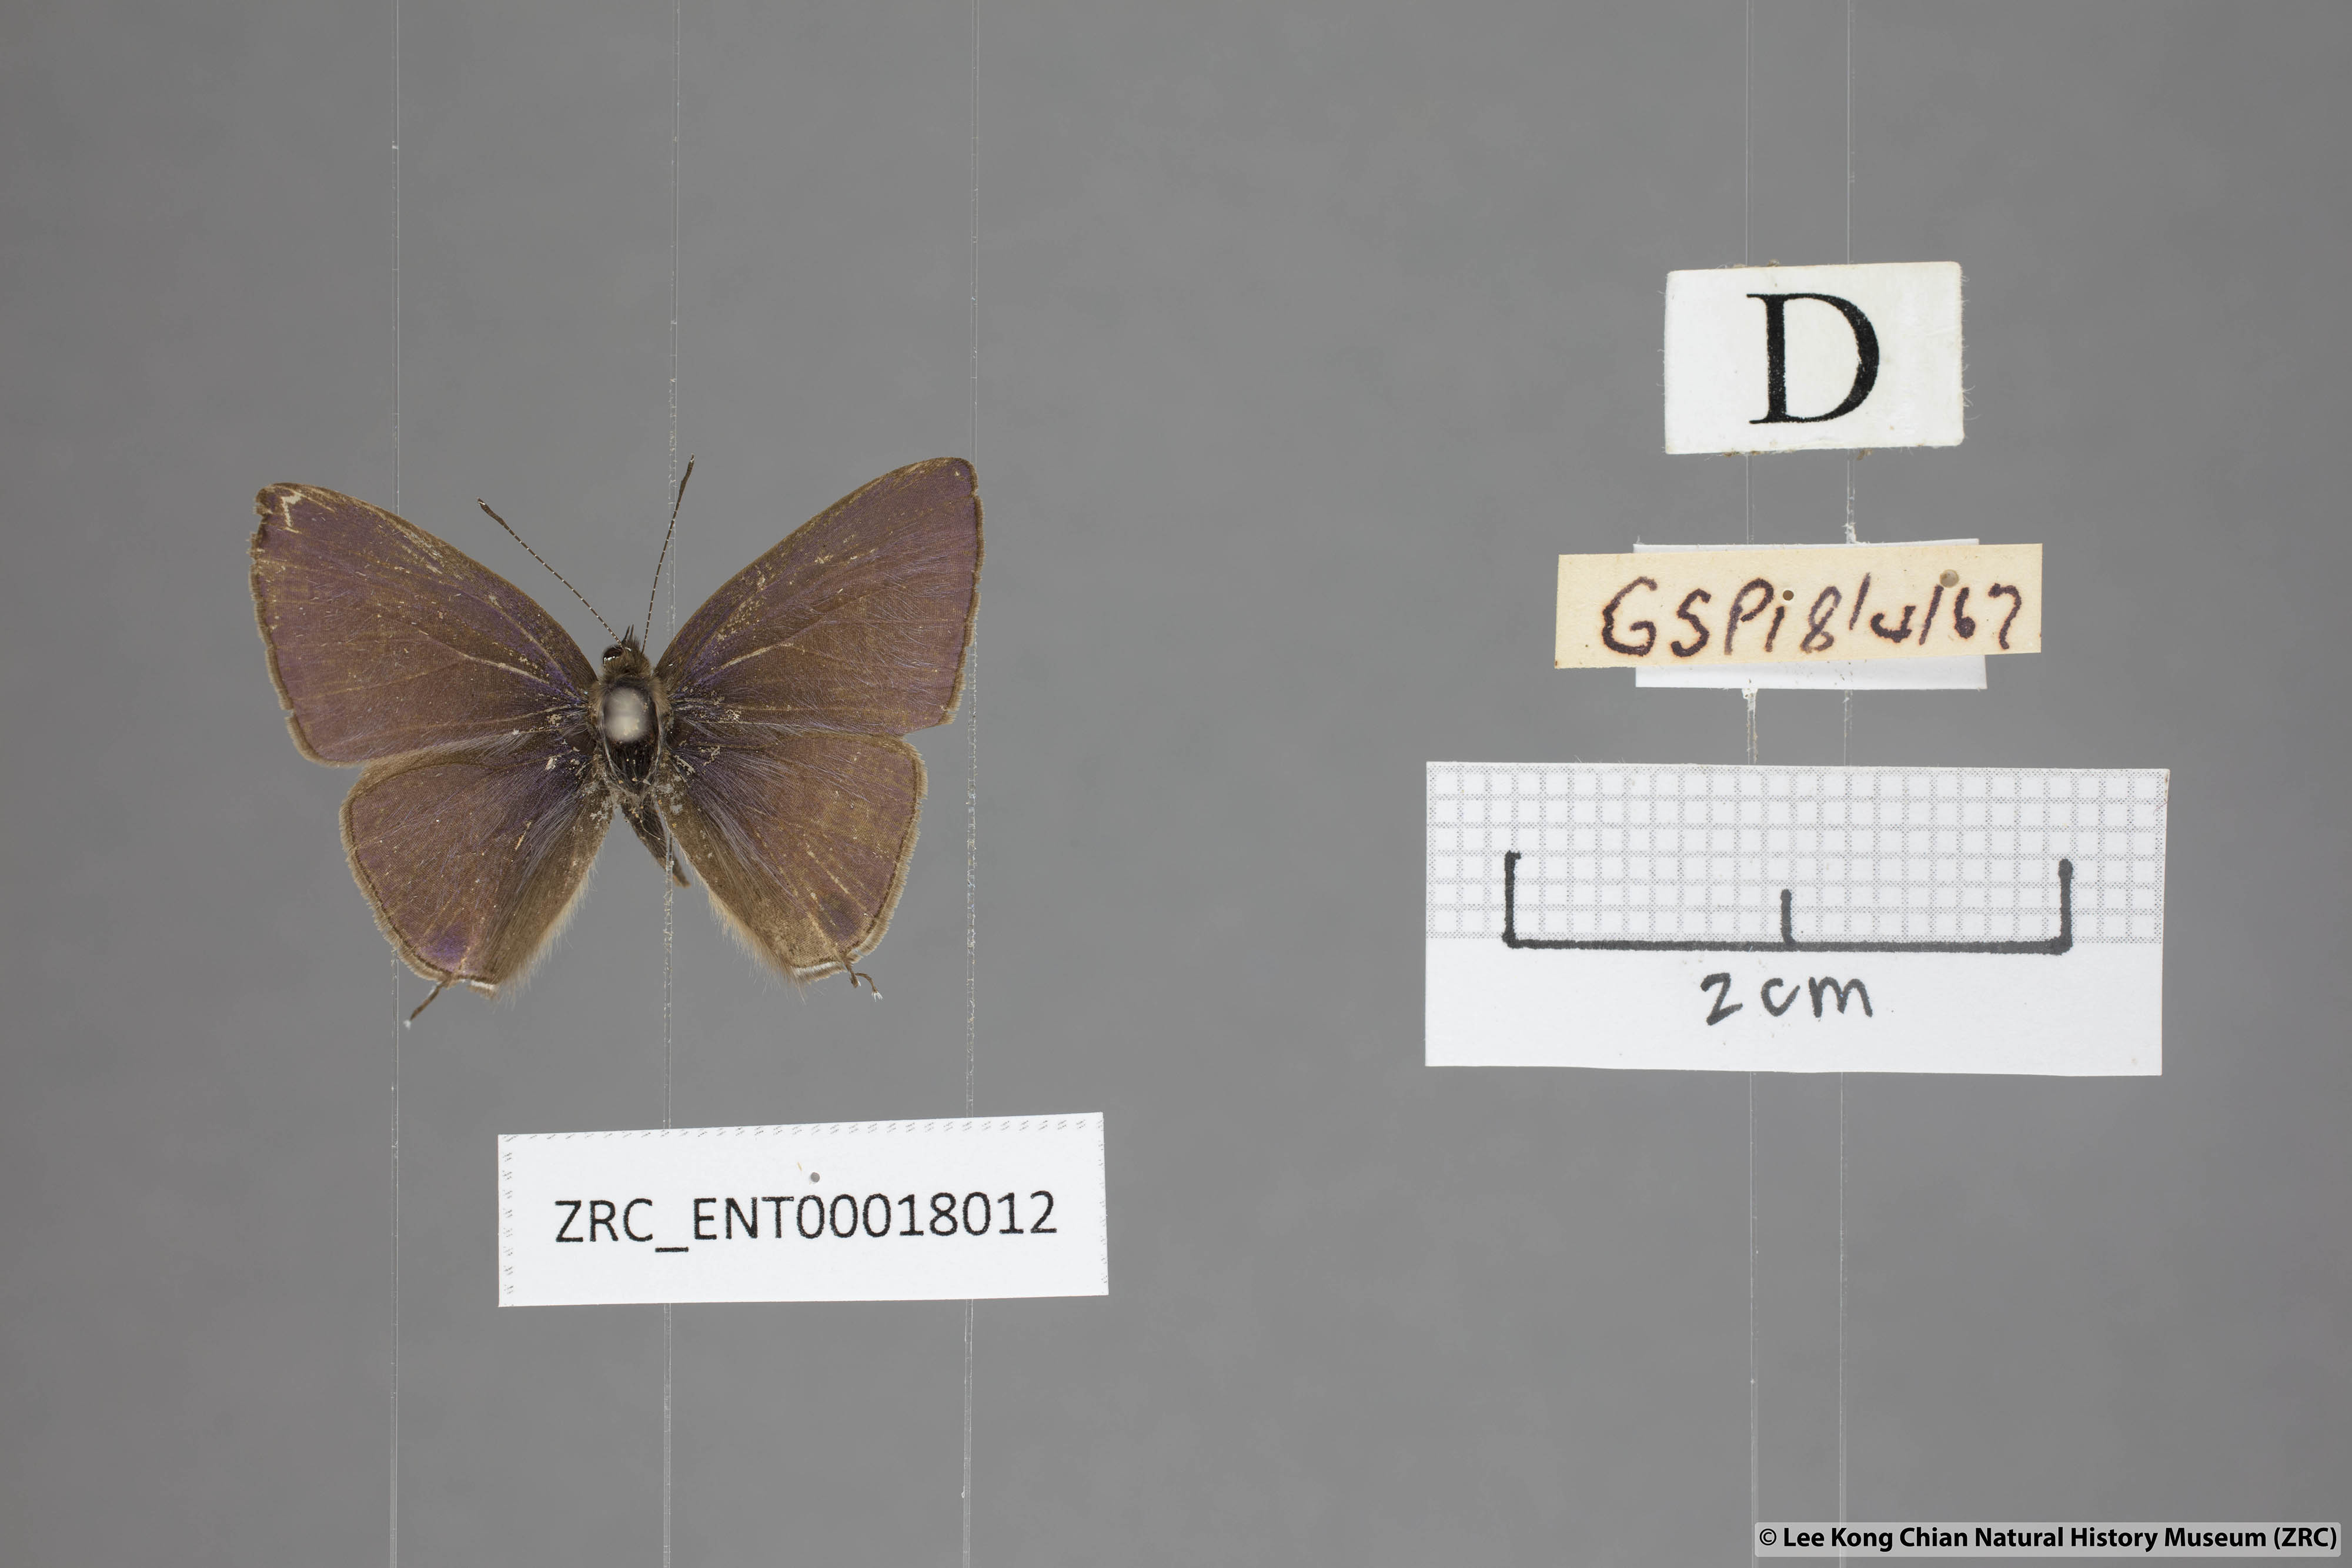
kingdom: Animalia
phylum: Arthropoda
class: Insecta
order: Lepidoptera
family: Lycaenidae
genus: Ionolyce
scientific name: Ionolyce helicon
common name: Pointed line blue
